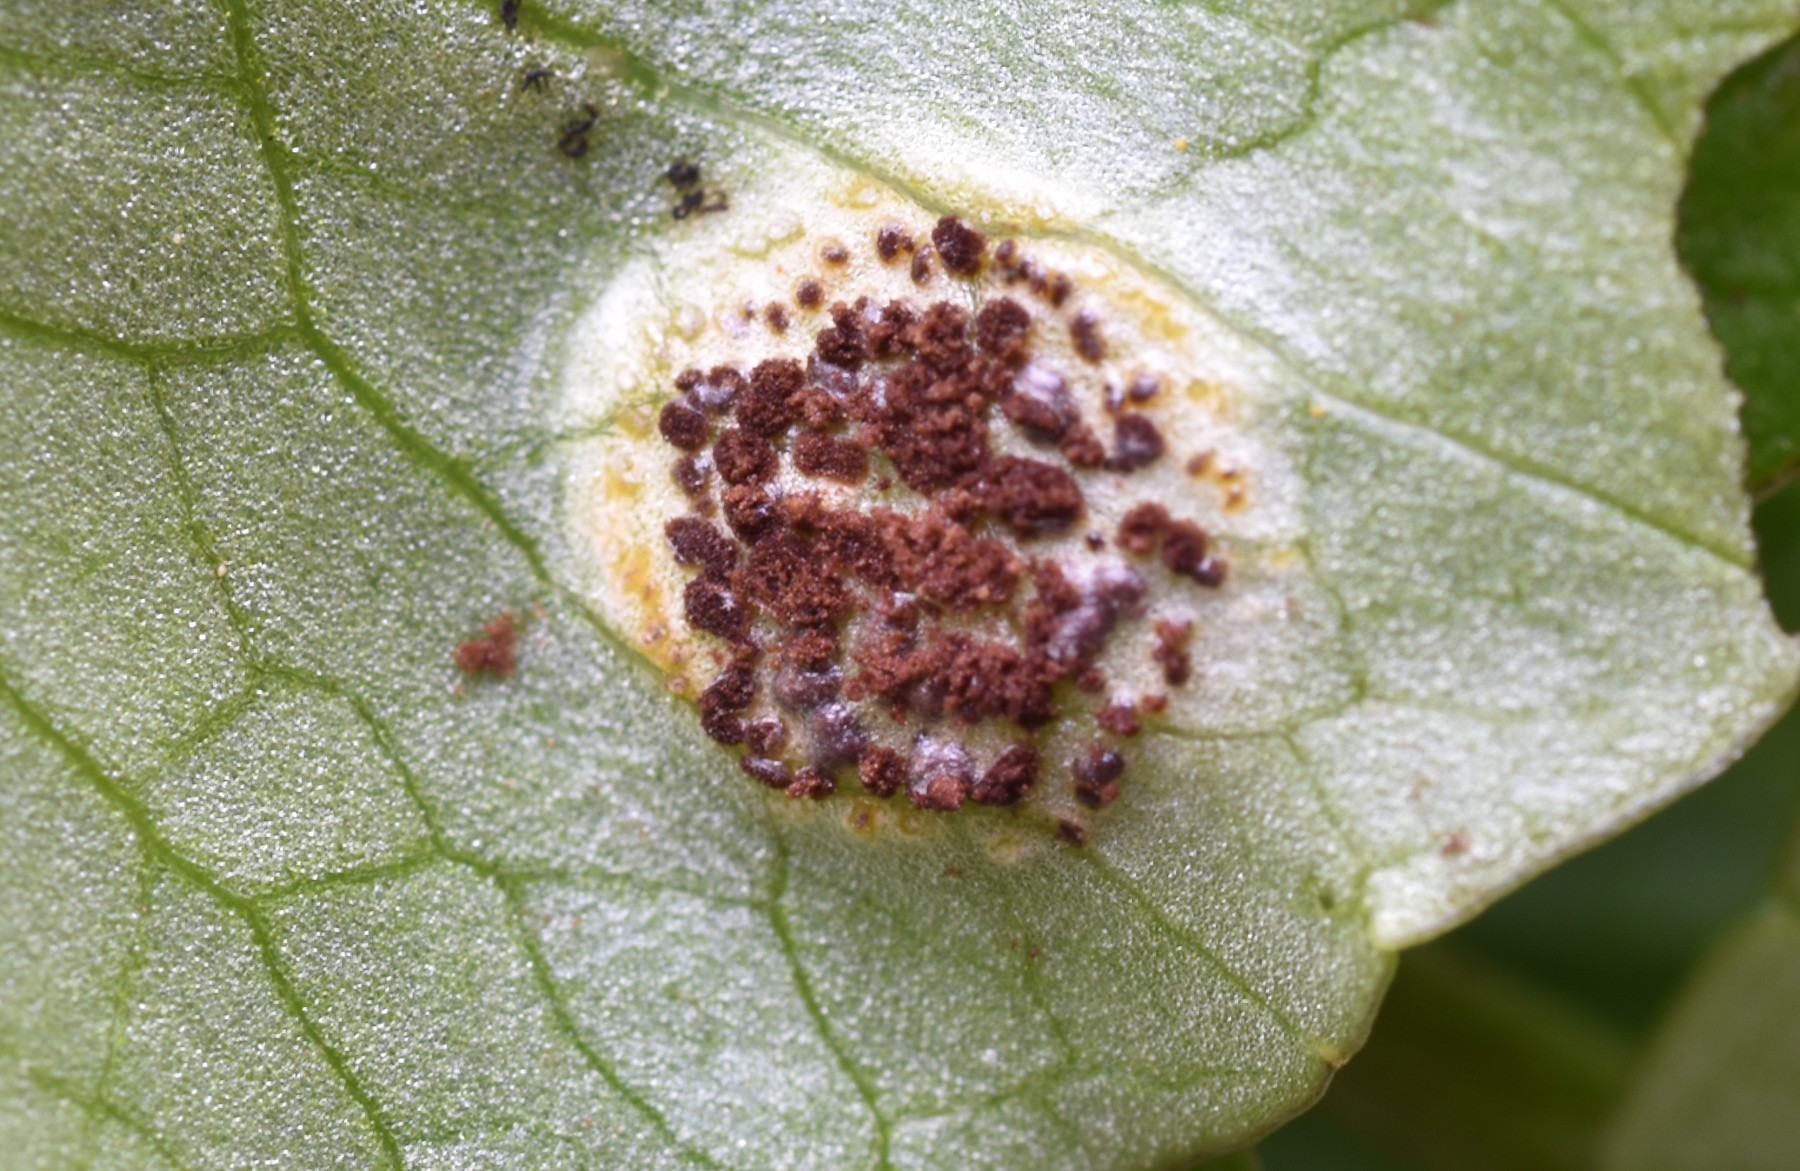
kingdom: Fungi
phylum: Basidiomycota
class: Pucciniomycetes
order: Pucciniales
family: Pucciniaceae
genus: Uromyces
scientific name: Uromyces ficariae
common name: vorterod-encellerust
